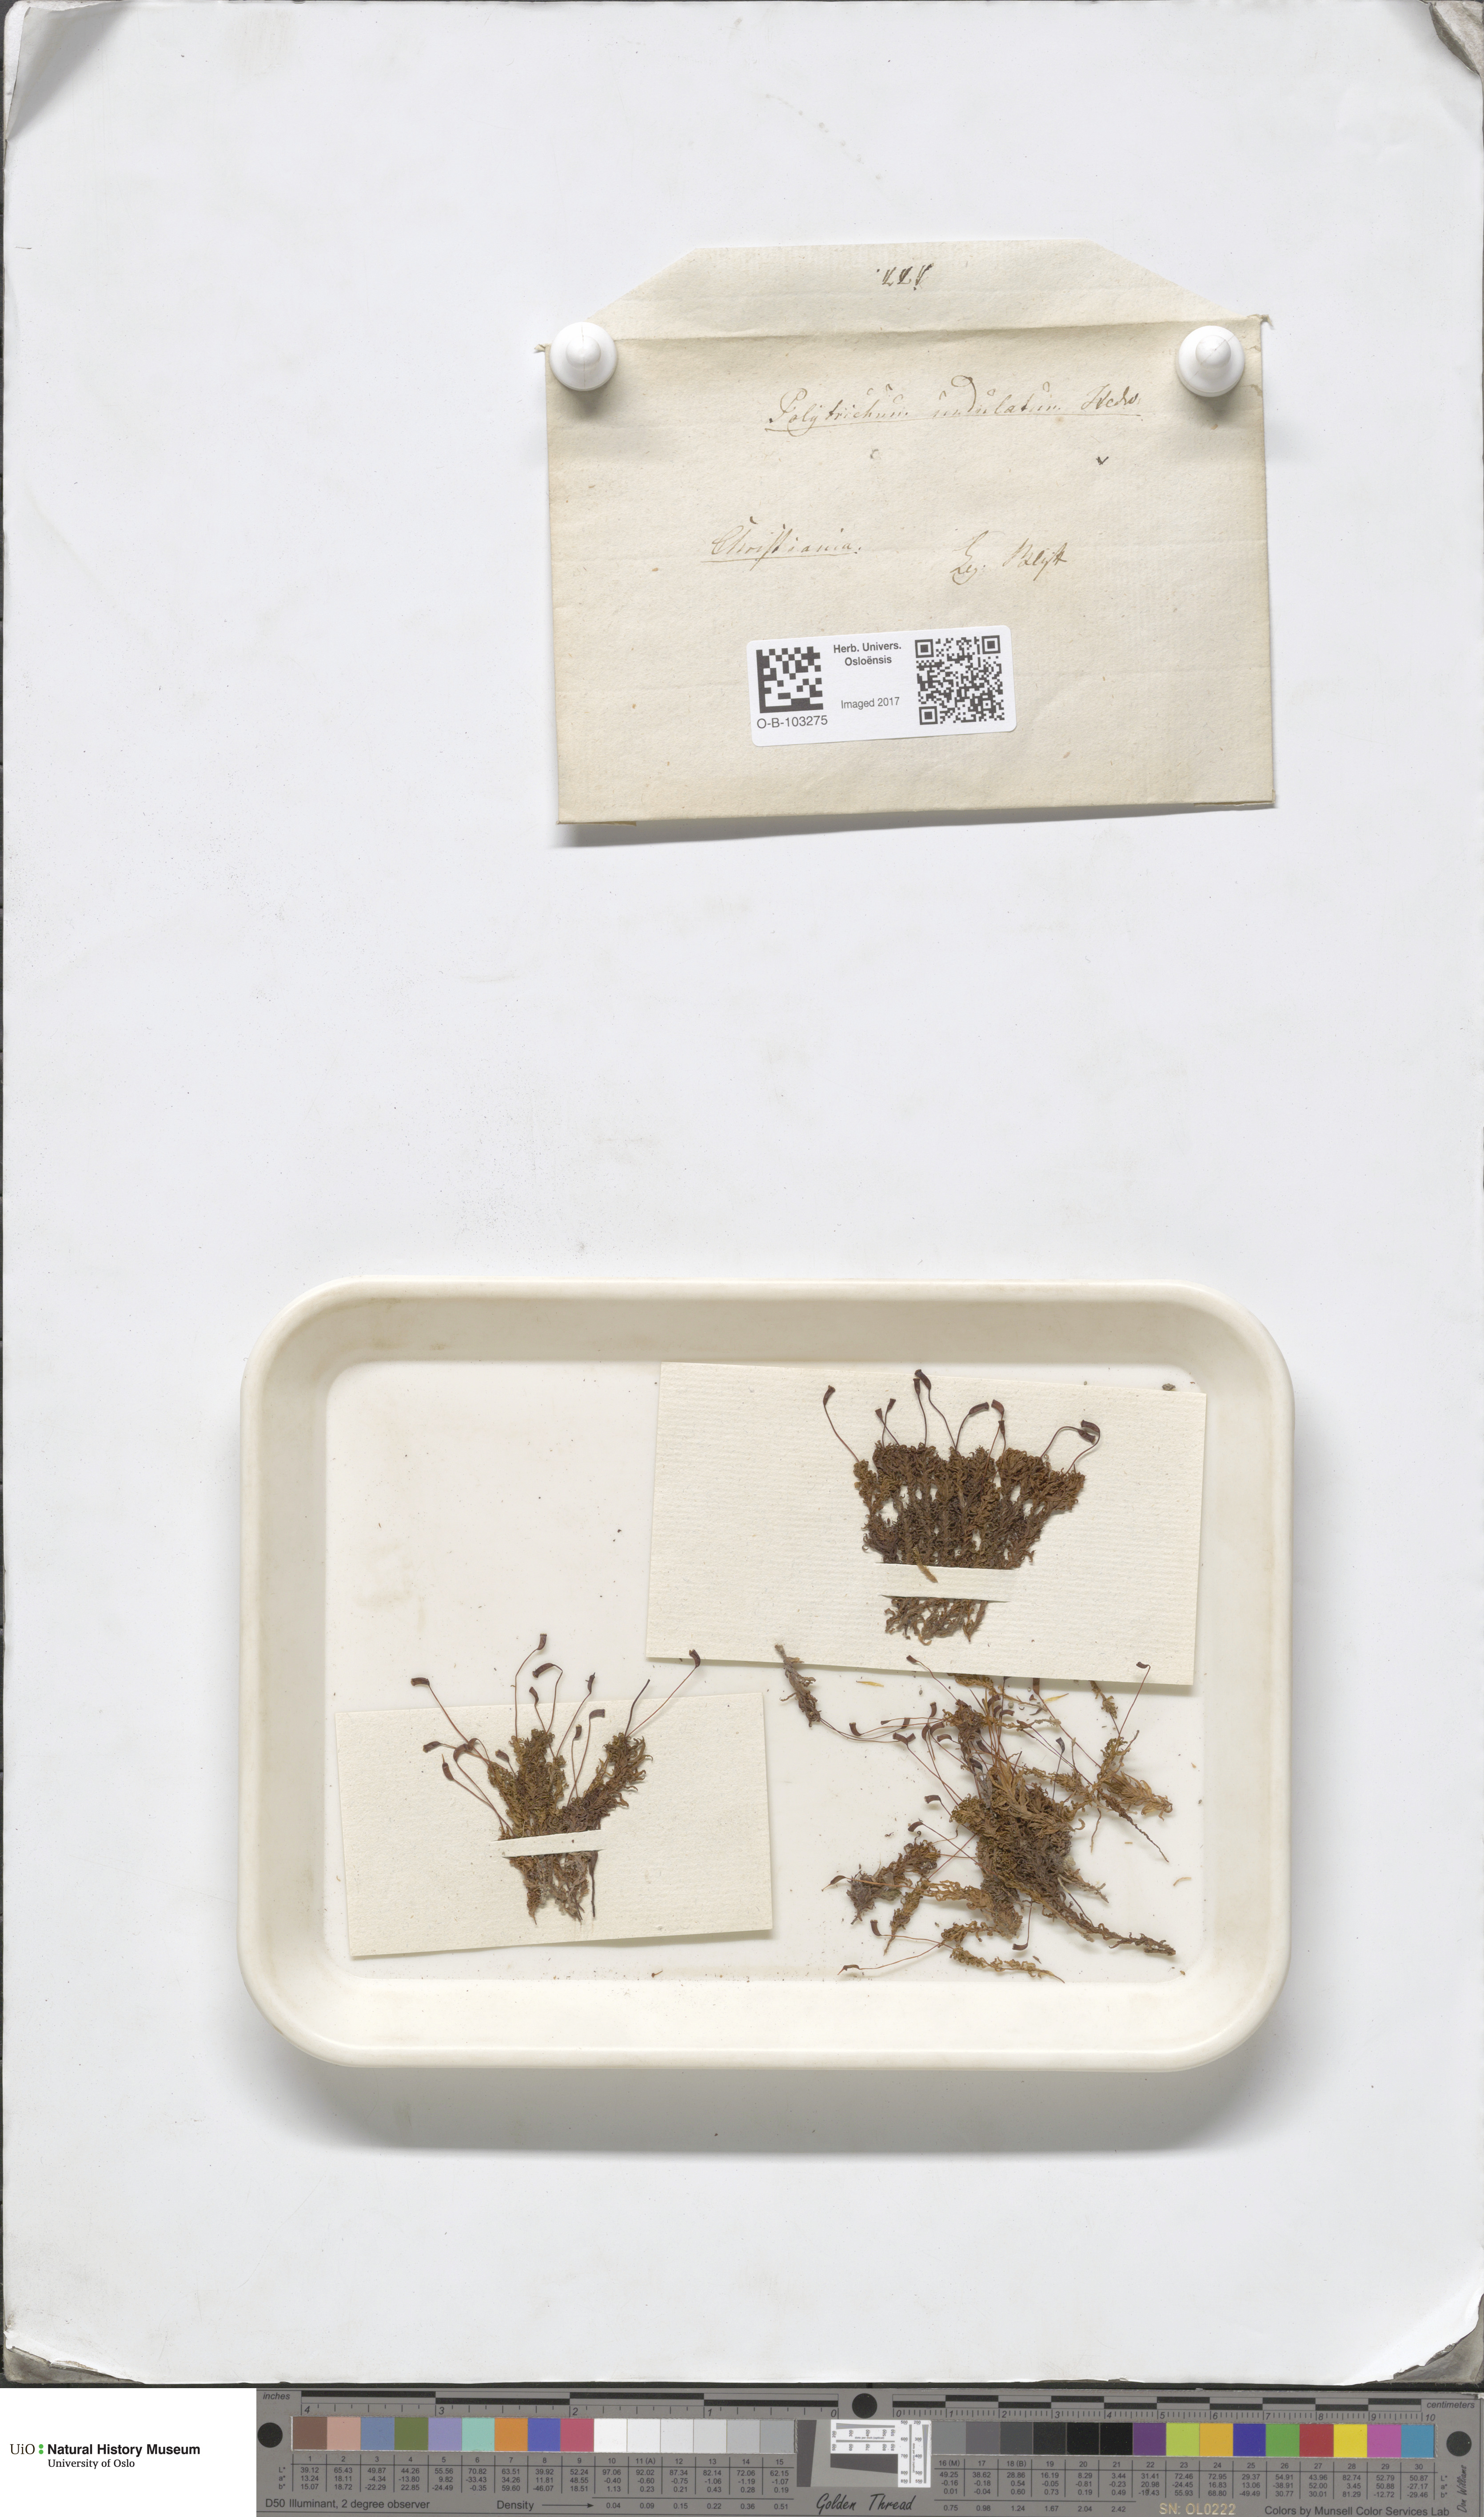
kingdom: Plantae
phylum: Bryophyta
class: Polytrichopsida
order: Polytrichales
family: Polytrichaceae
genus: Atrichum
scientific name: Atrichum undulatum
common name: Common smoothcap
